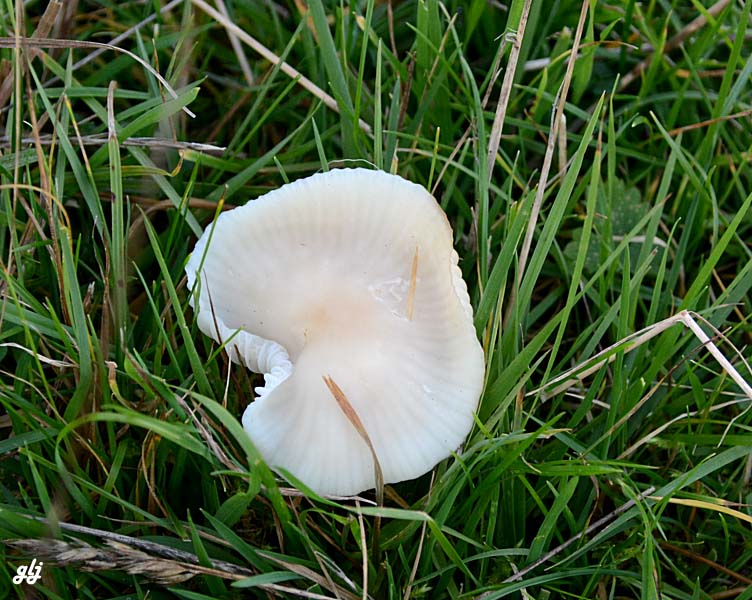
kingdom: Fungi
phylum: Basidiomycota
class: Agaricomycetes
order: Agaricales
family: Hygrophoraceae
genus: Cuphophyllus
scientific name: Cuphophyllus virgineus
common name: snehvid vokshat
